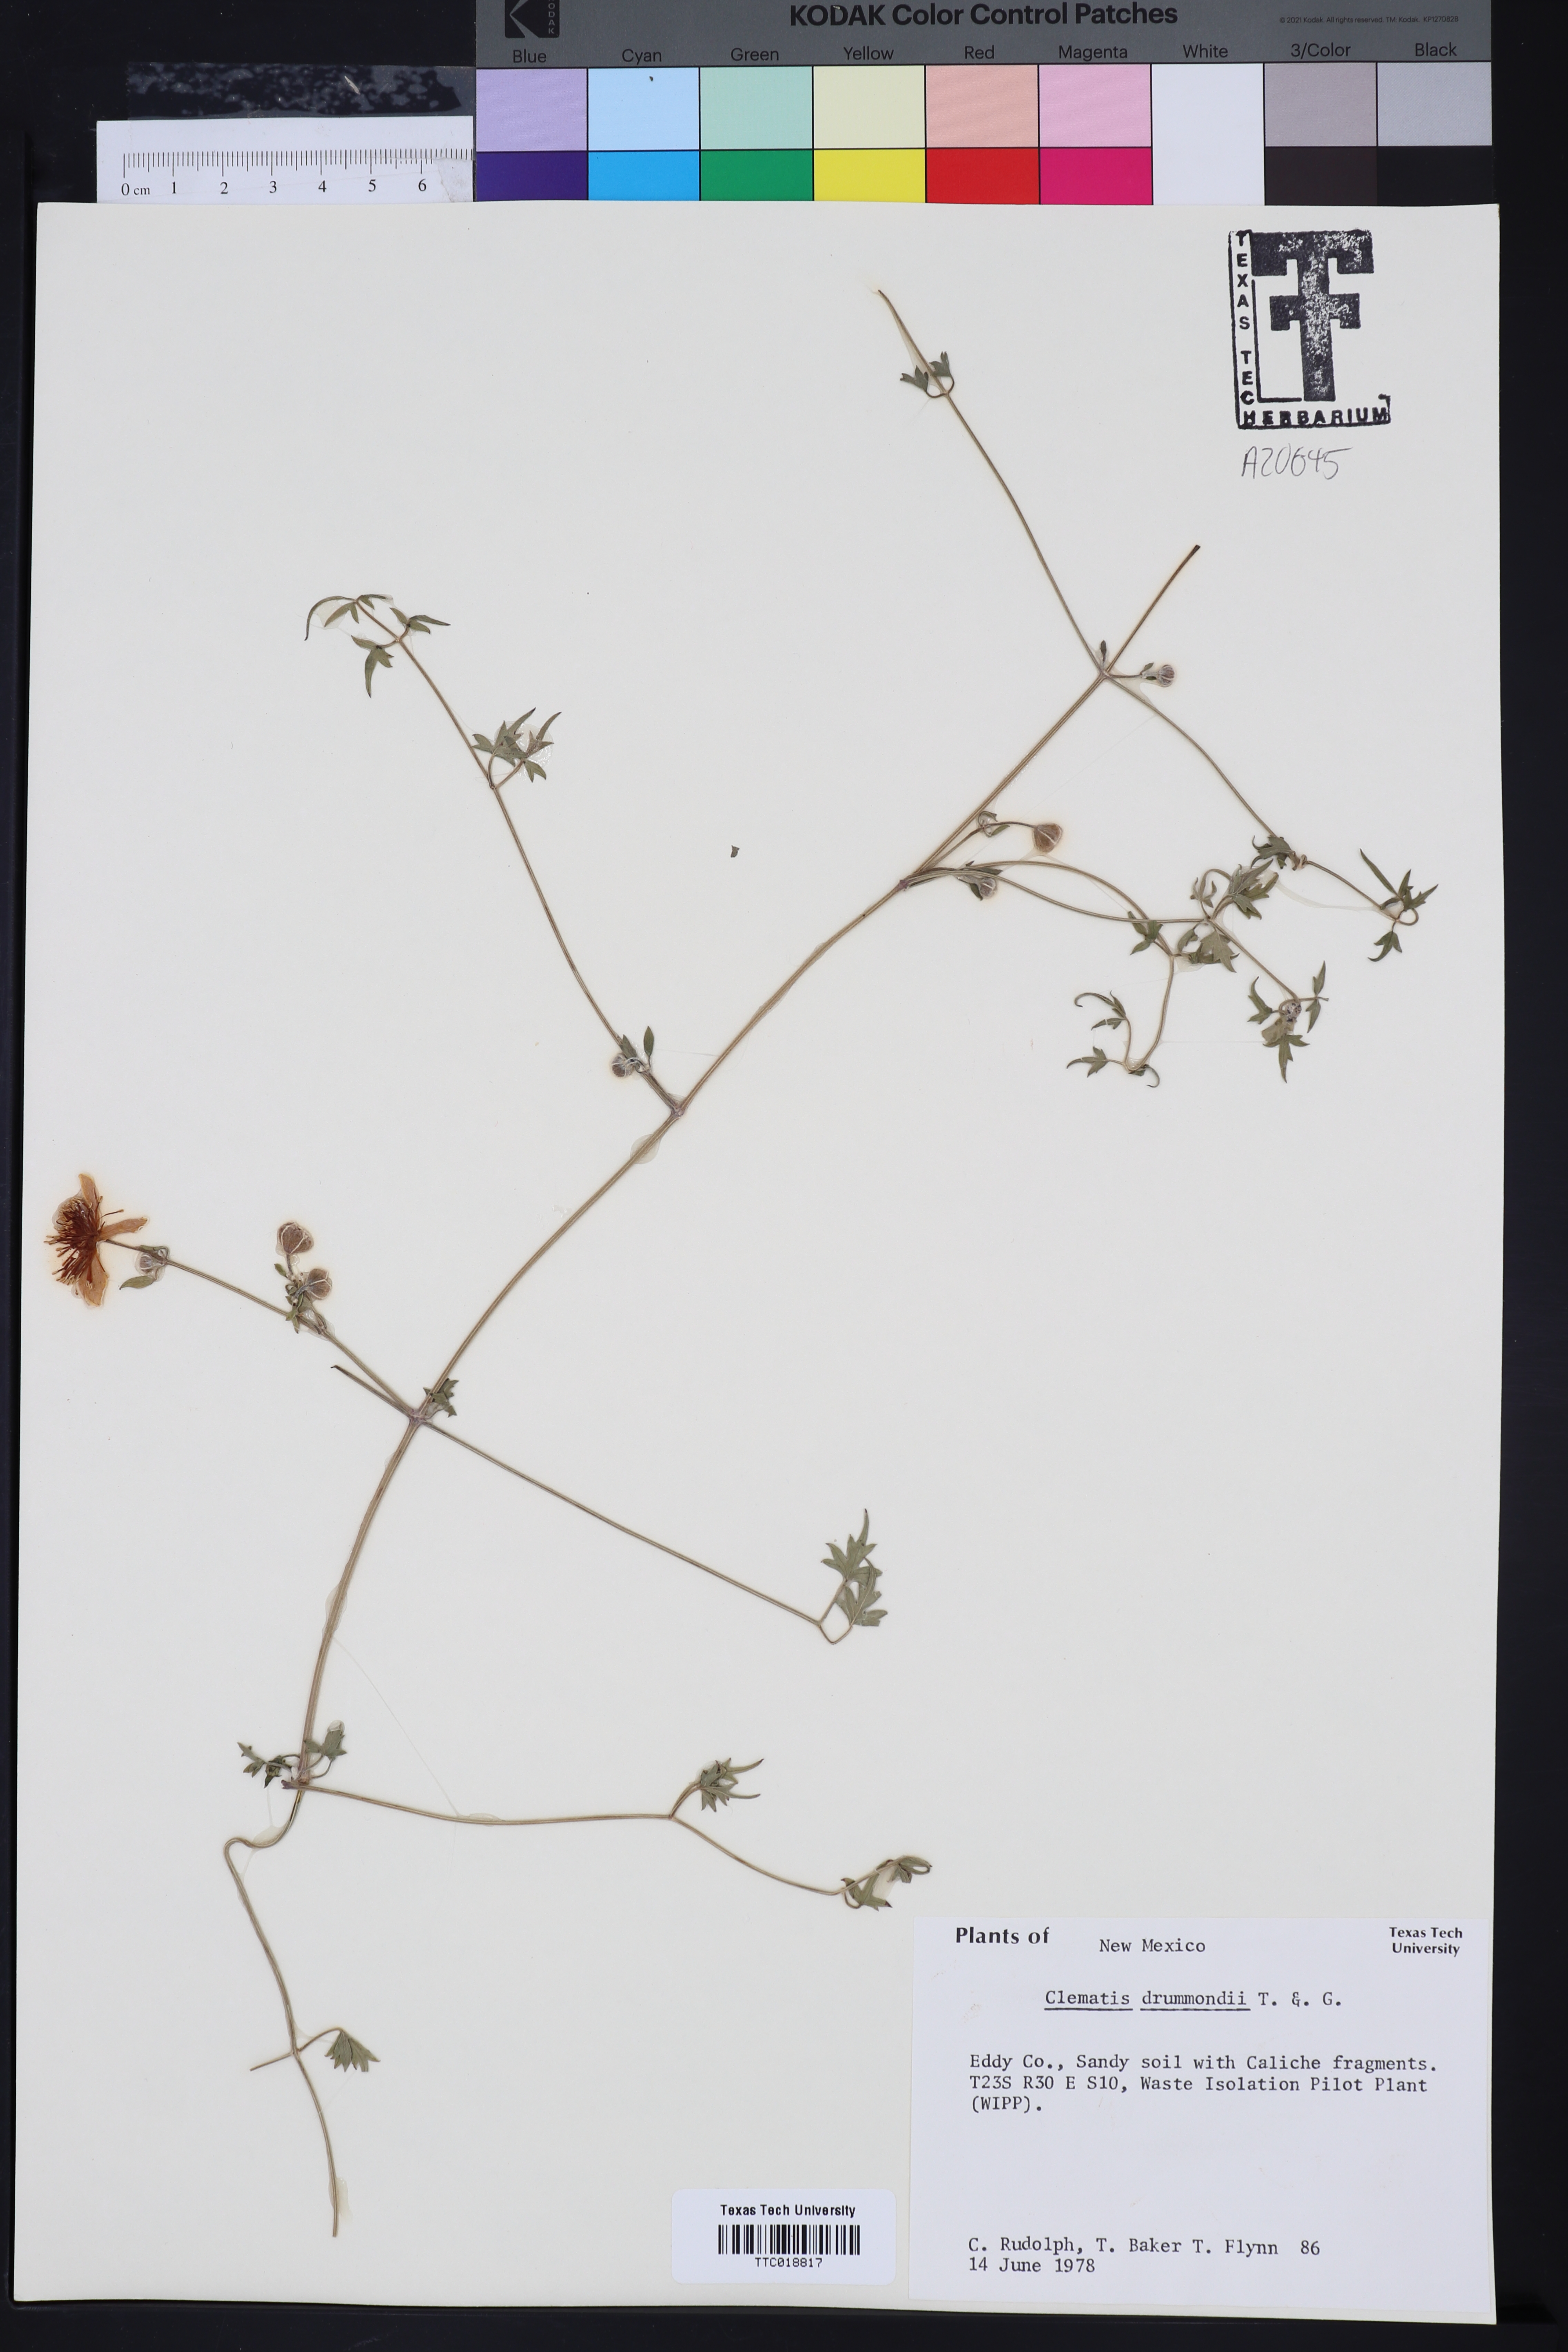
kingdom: Plantae
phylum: Tracheophyta
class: Magnoliopsida
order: Ranunculales
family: Ranunculaceae
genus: Clematis
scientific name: Clematis drummondii
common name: Texas virgin's bower
